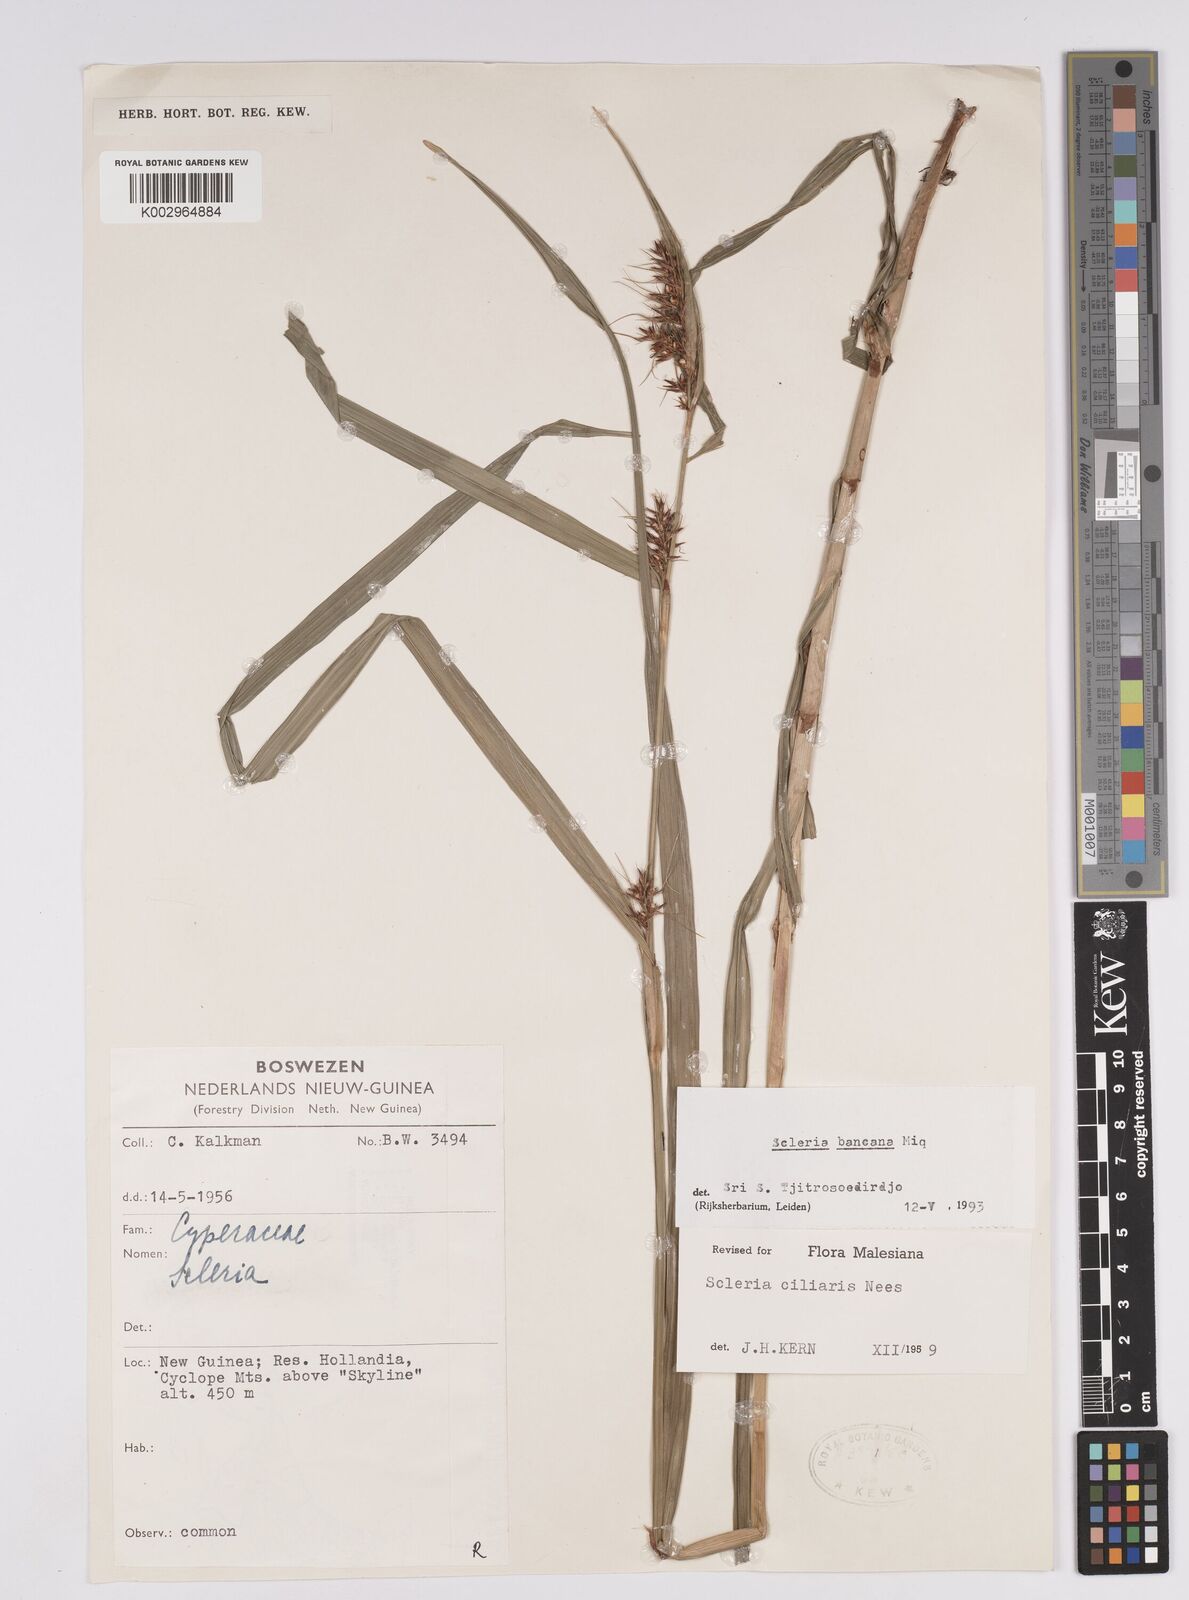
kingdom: Plantae
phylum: Tracheophyta
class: Liliopsida
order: Poales
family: Cyperaceae
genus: Scleria
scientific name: Scleria ciliaris
